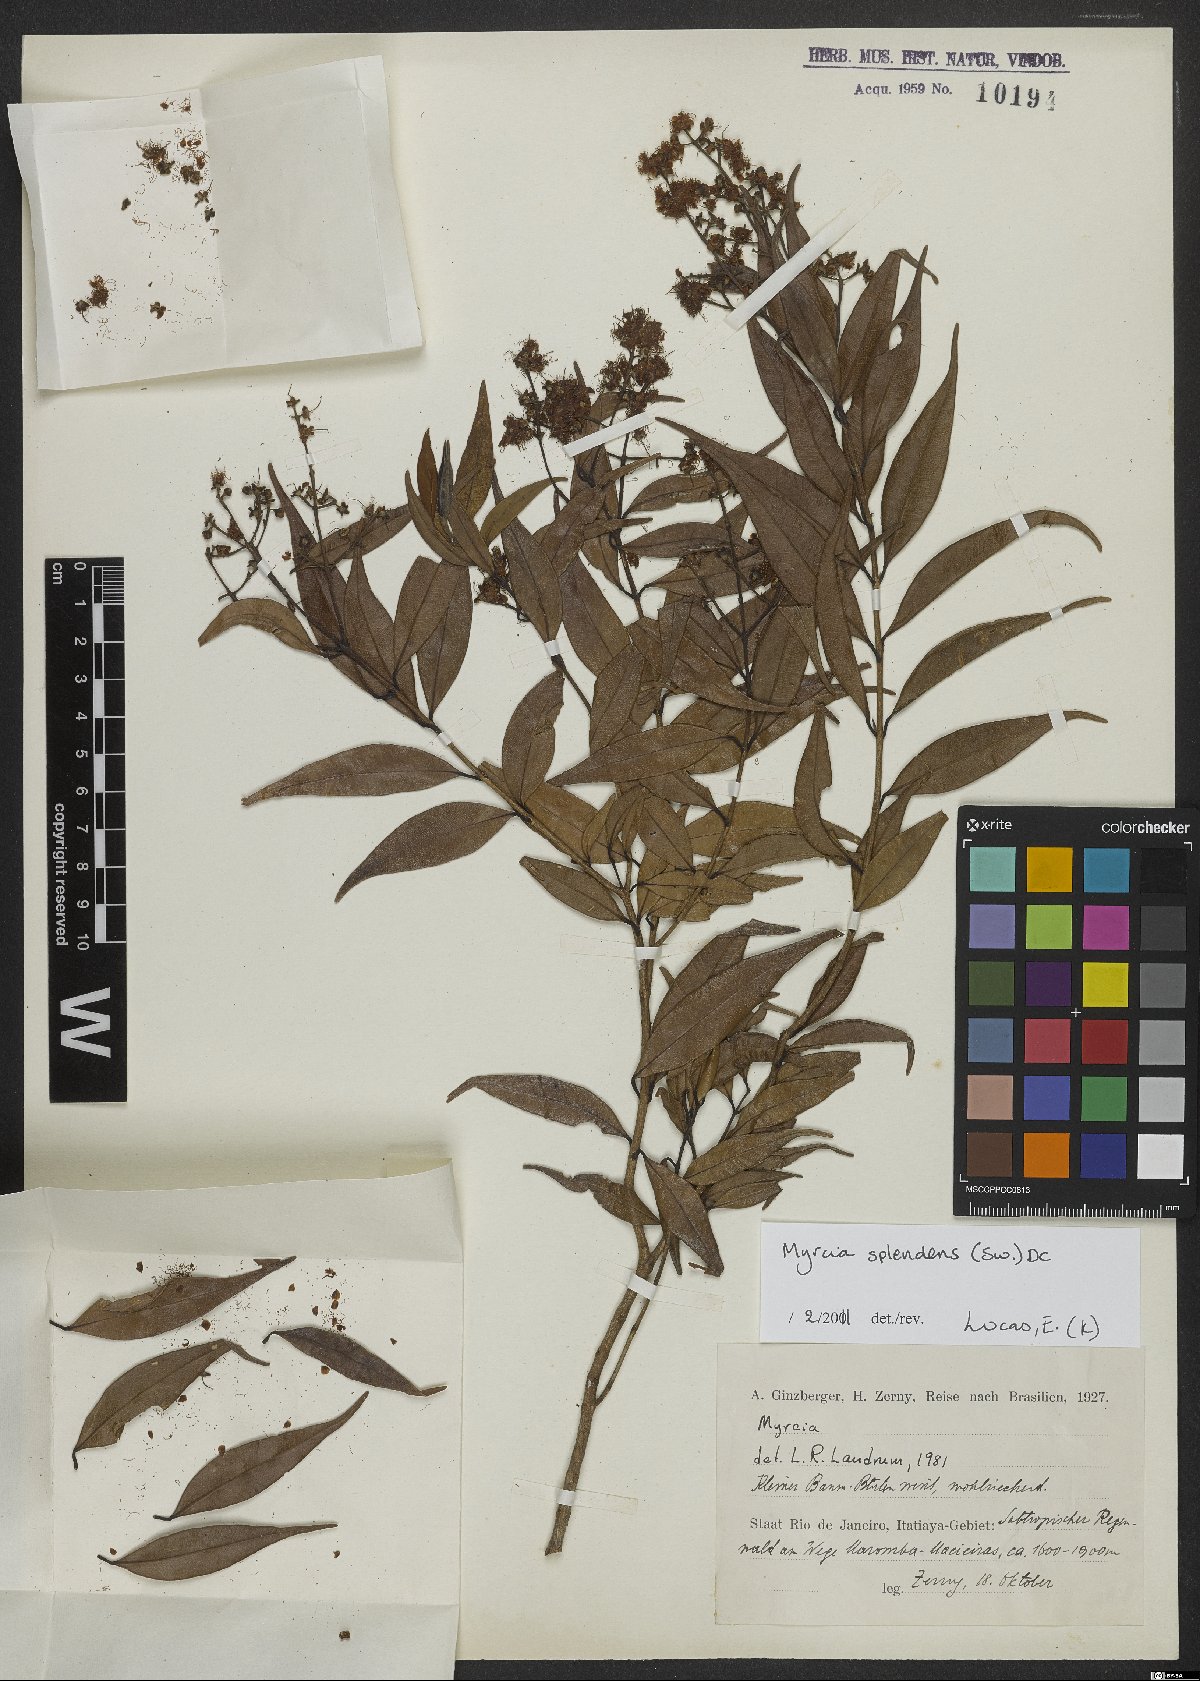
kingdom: Plantae
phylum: Tracheophyta
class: Magnoliopsida
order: Myrtales
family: Myrtaceae
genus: Myrcia
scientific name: Myrcia splendens
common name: Surinam cherry
